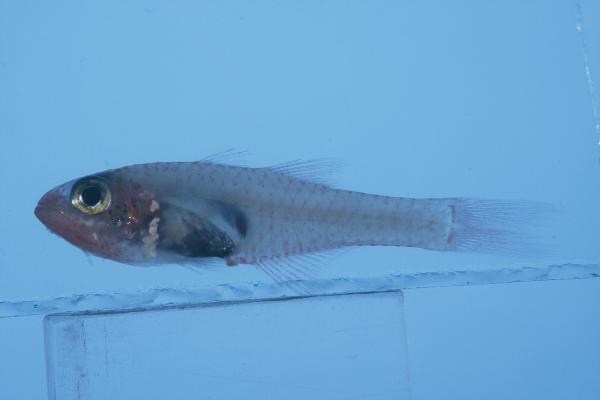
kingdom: Animalia
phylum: Chordata
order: Perciformes
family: Apogonidae
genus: Cercamia
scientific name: Cercamia eremia
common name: Glassy cardinalfish
